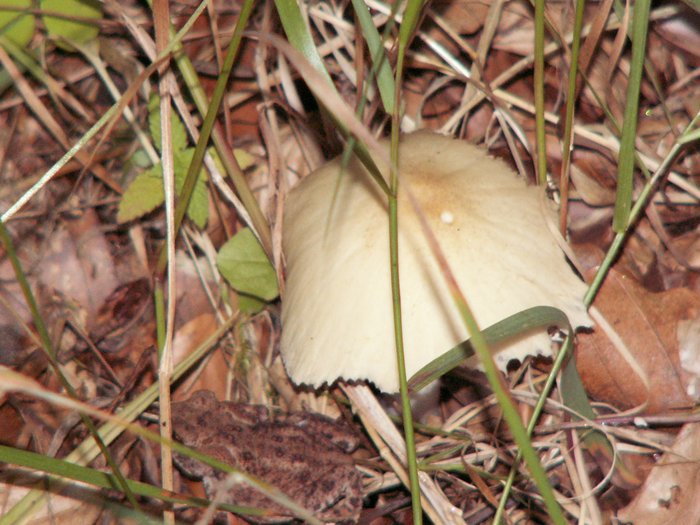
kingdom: Fungi
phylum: Basidiomycota
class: Agaricomycetes
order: Agaricales
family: Psathyrellaceae
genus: Candolleomyces
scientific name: Candolleomyces candolleanus
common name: Candolles mørkhat
